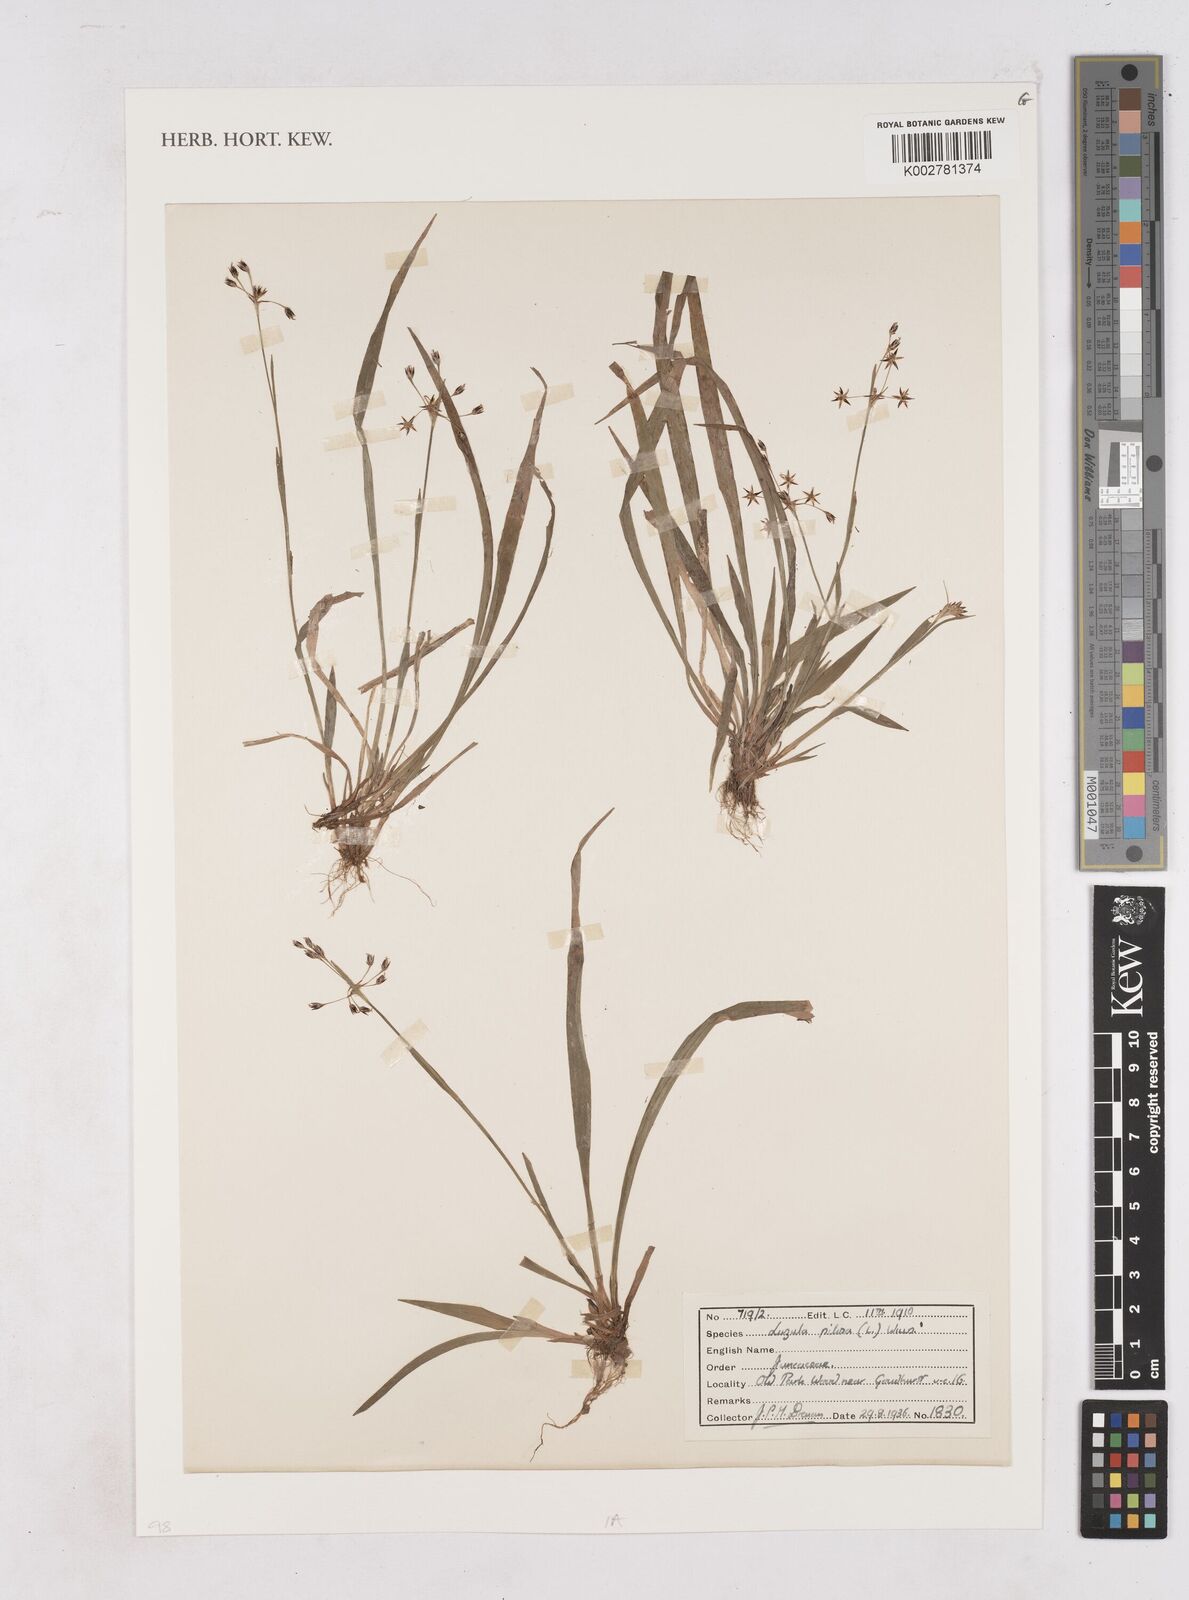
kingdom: Plantae
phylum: Tracheophyta
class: Liliopsida
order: Poales
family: Juncaceae
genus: Luzula
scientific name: Luzula pilosa
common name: Hairy wood-rush
